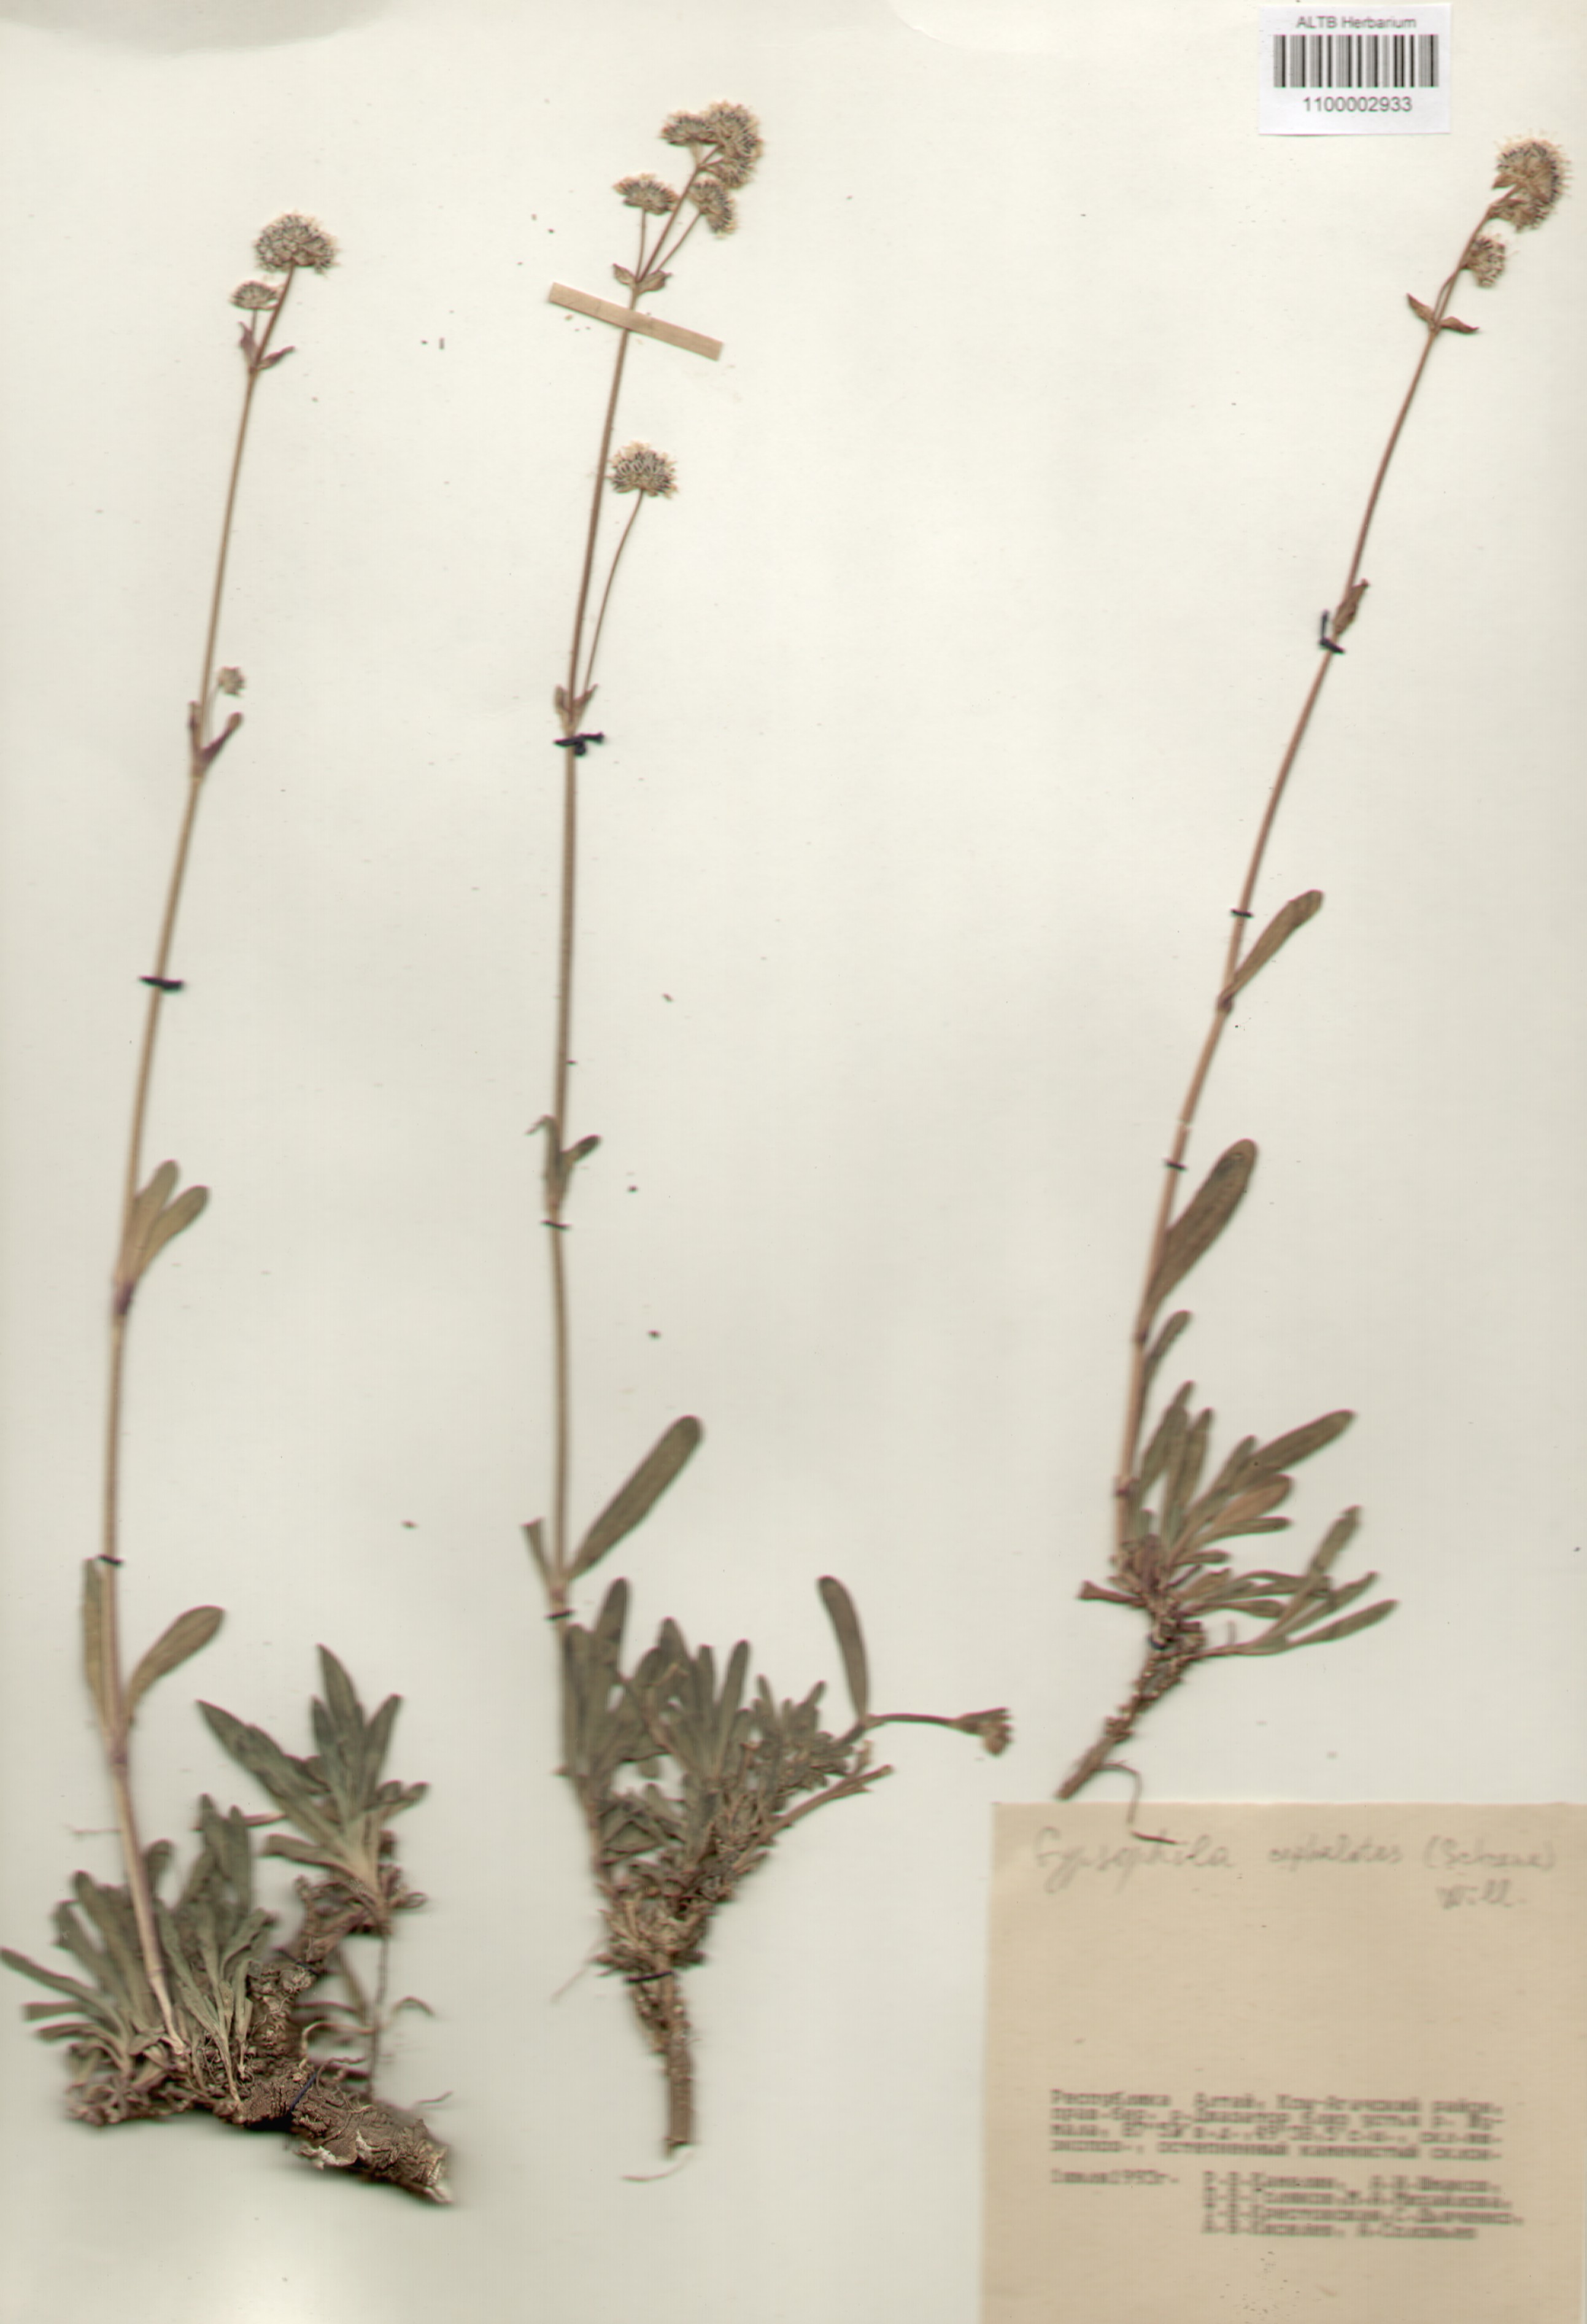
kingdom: Plantae
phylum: Tracheophyta
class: Magnoliopsida
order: Caryophyllales
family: Caryophyllaceae
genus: Gypsophila
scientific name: Gypsophila cephalotes
